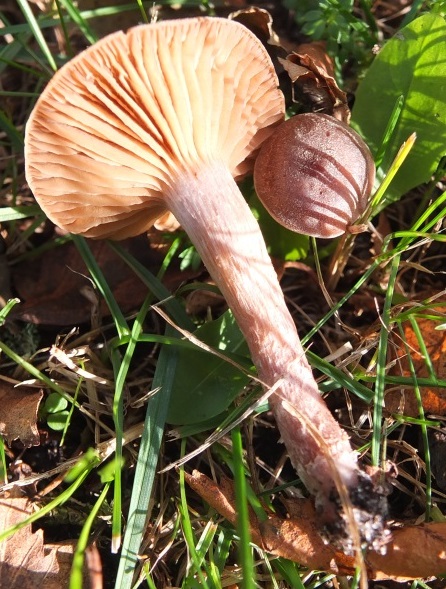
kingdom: Fungi
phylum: Basidiomycota
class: Agaricomycetes
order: Agaricales
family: Cortinariaceae
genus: Cortinarius
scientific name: Cortinarius
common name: pelargonie-slørhat
